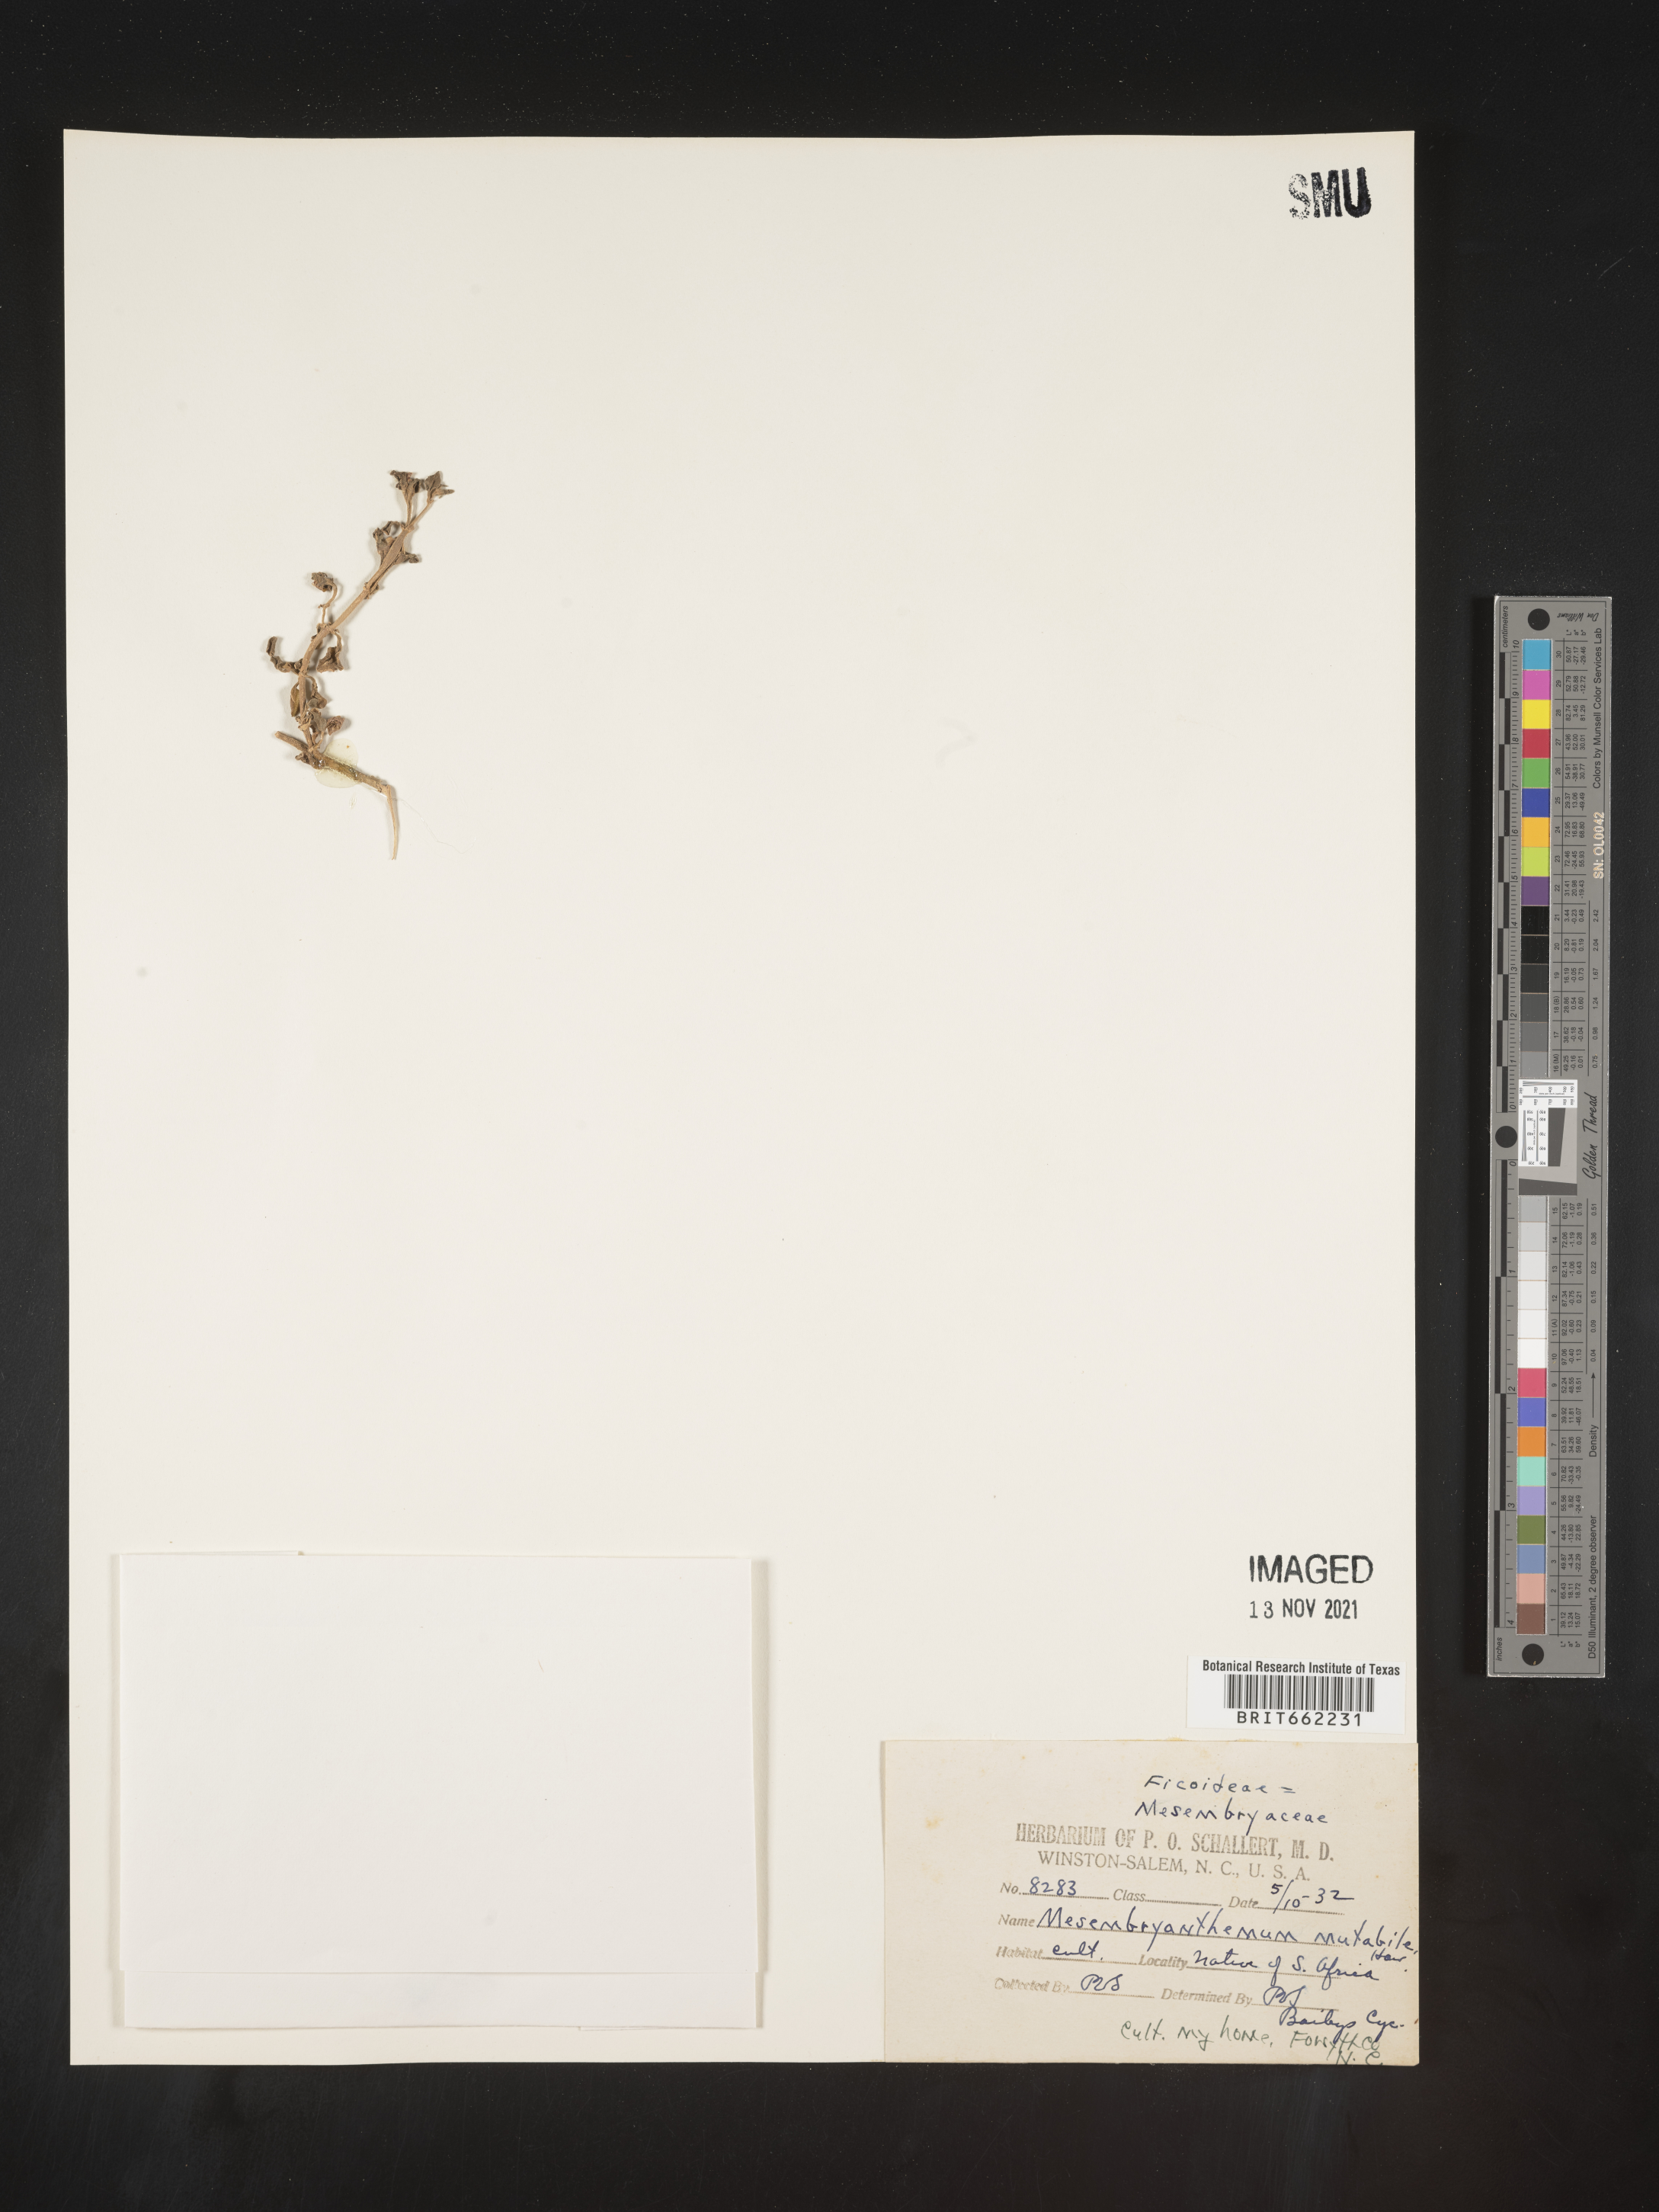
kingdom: Plantae
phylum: Tracheophyta
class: Magnoliopsida
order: Caryophyllales
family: Aizoaceae
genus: Mesembryanthemum
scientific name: Mesembryanthemum
